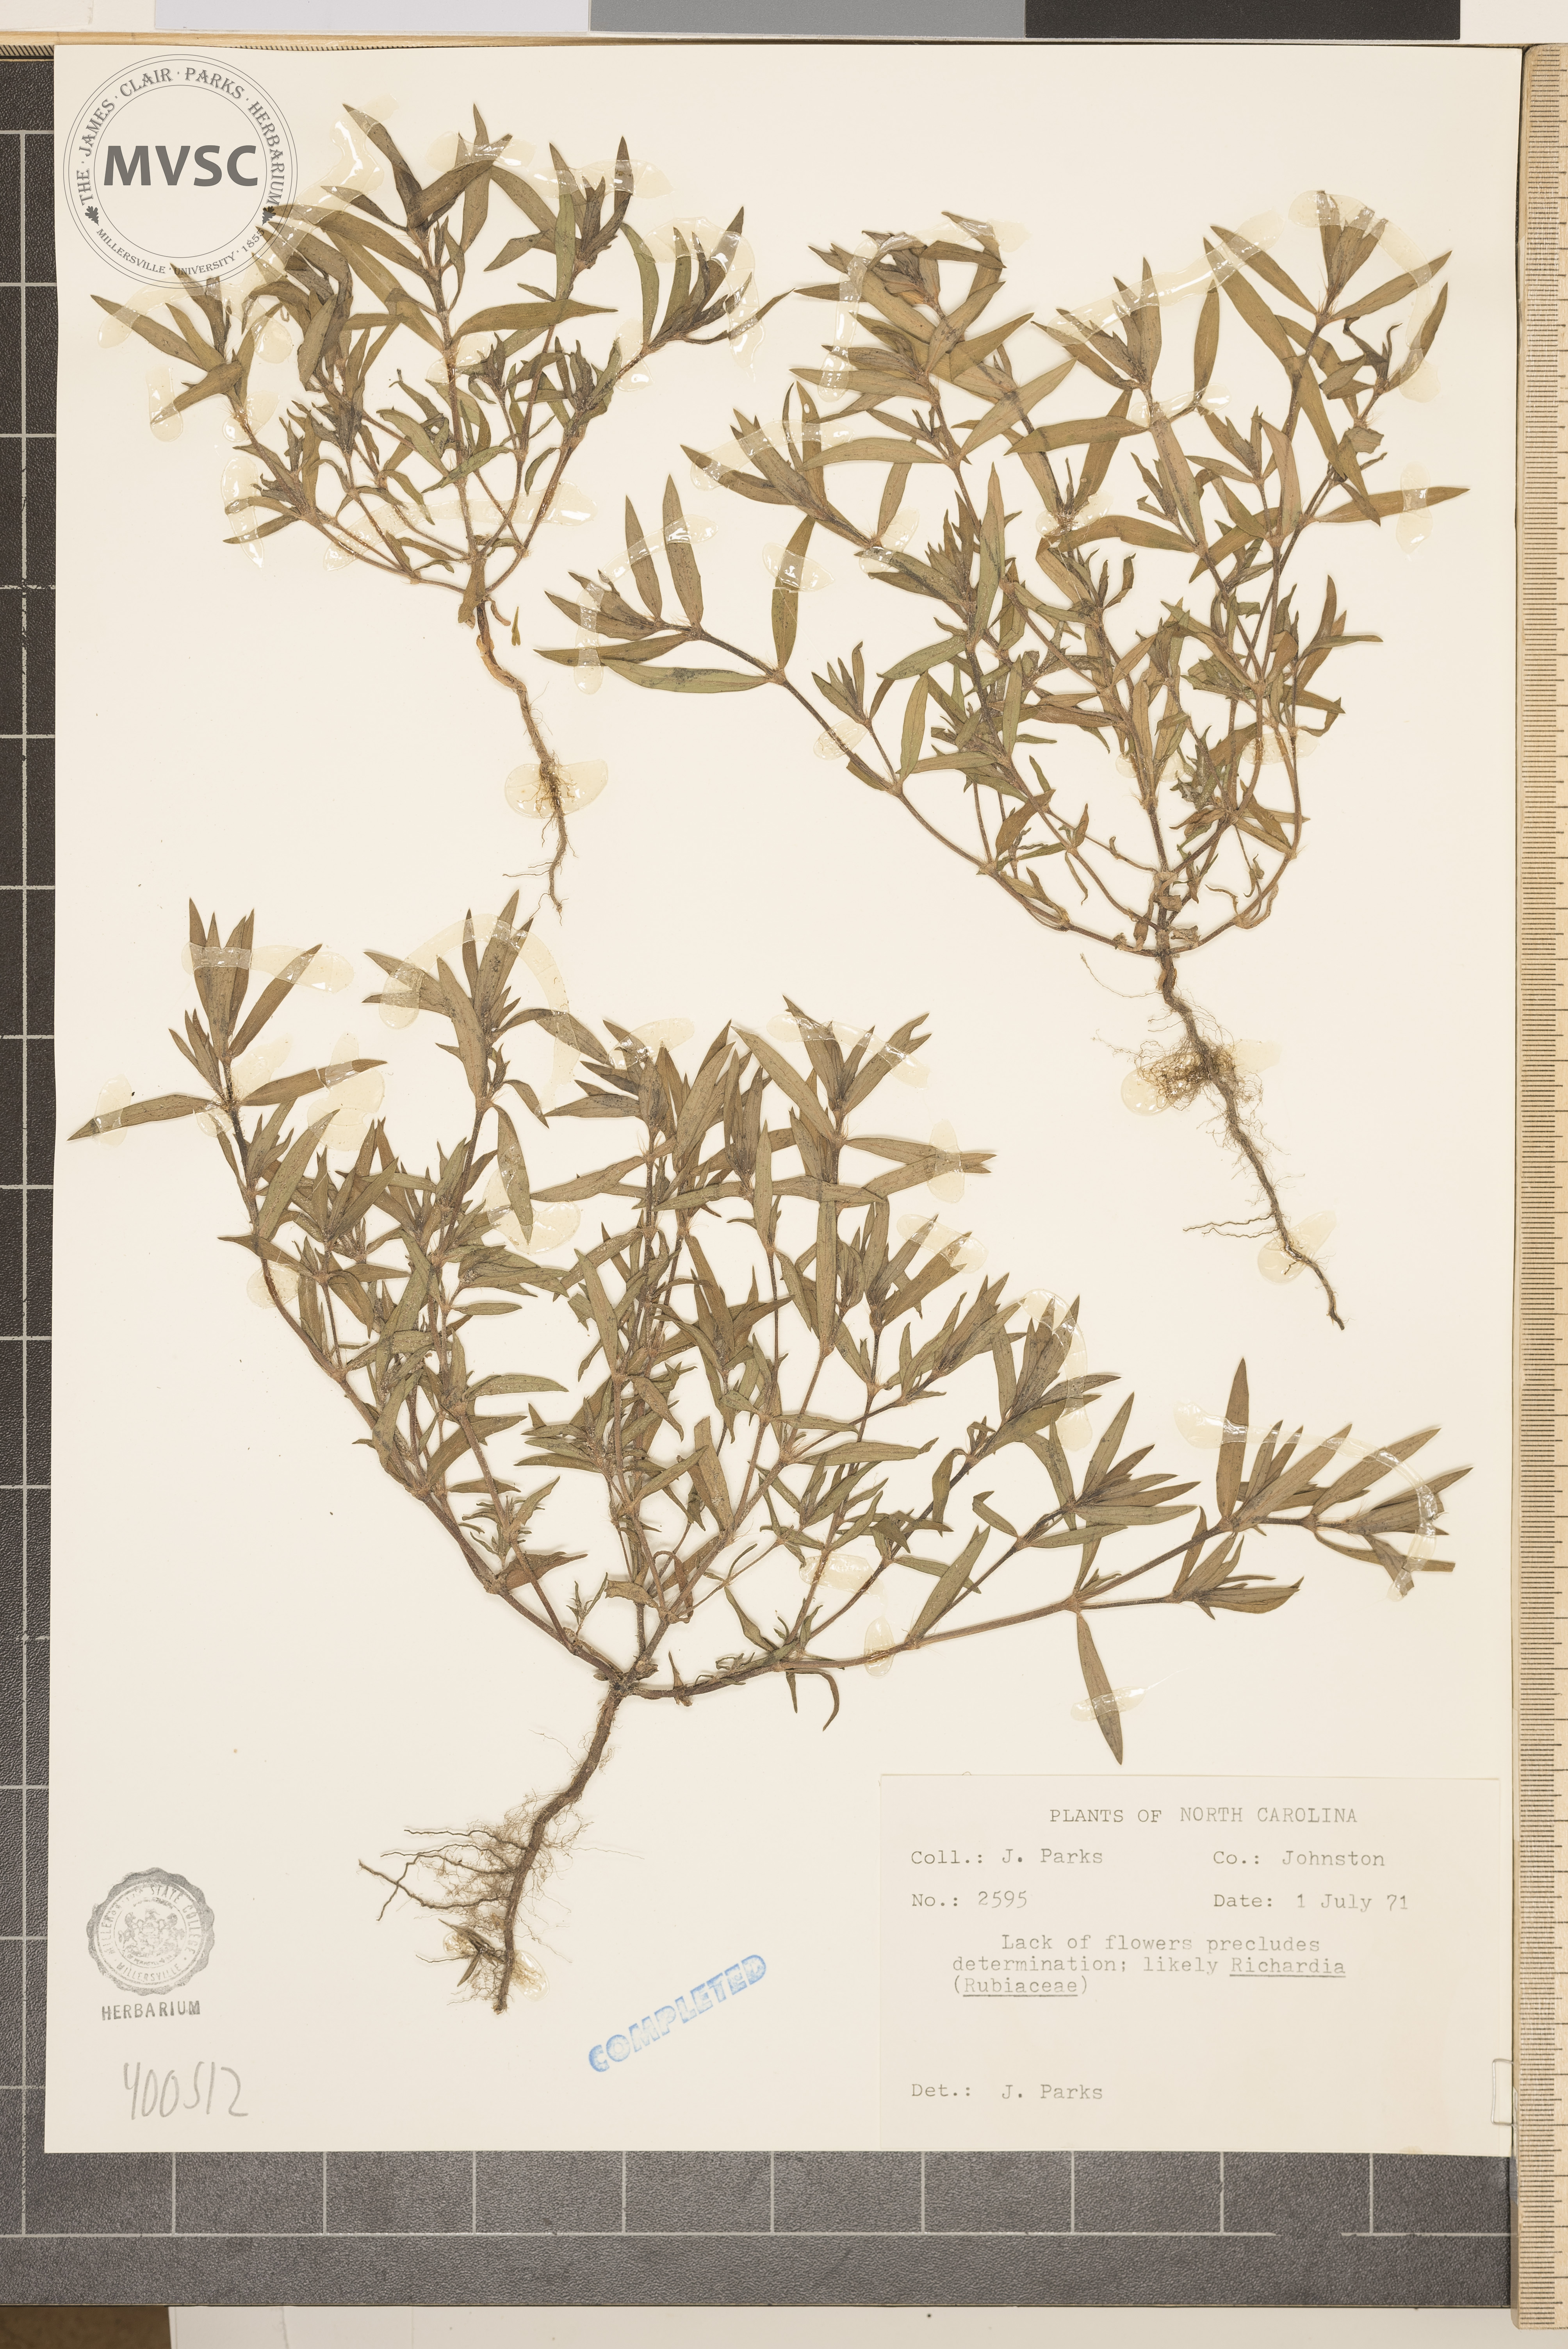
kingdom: Plantae
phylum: Tracheophyta
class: Magnoliopsida
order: Gentianales
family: Rubiaceae
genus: Richardia
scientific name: Richardia
